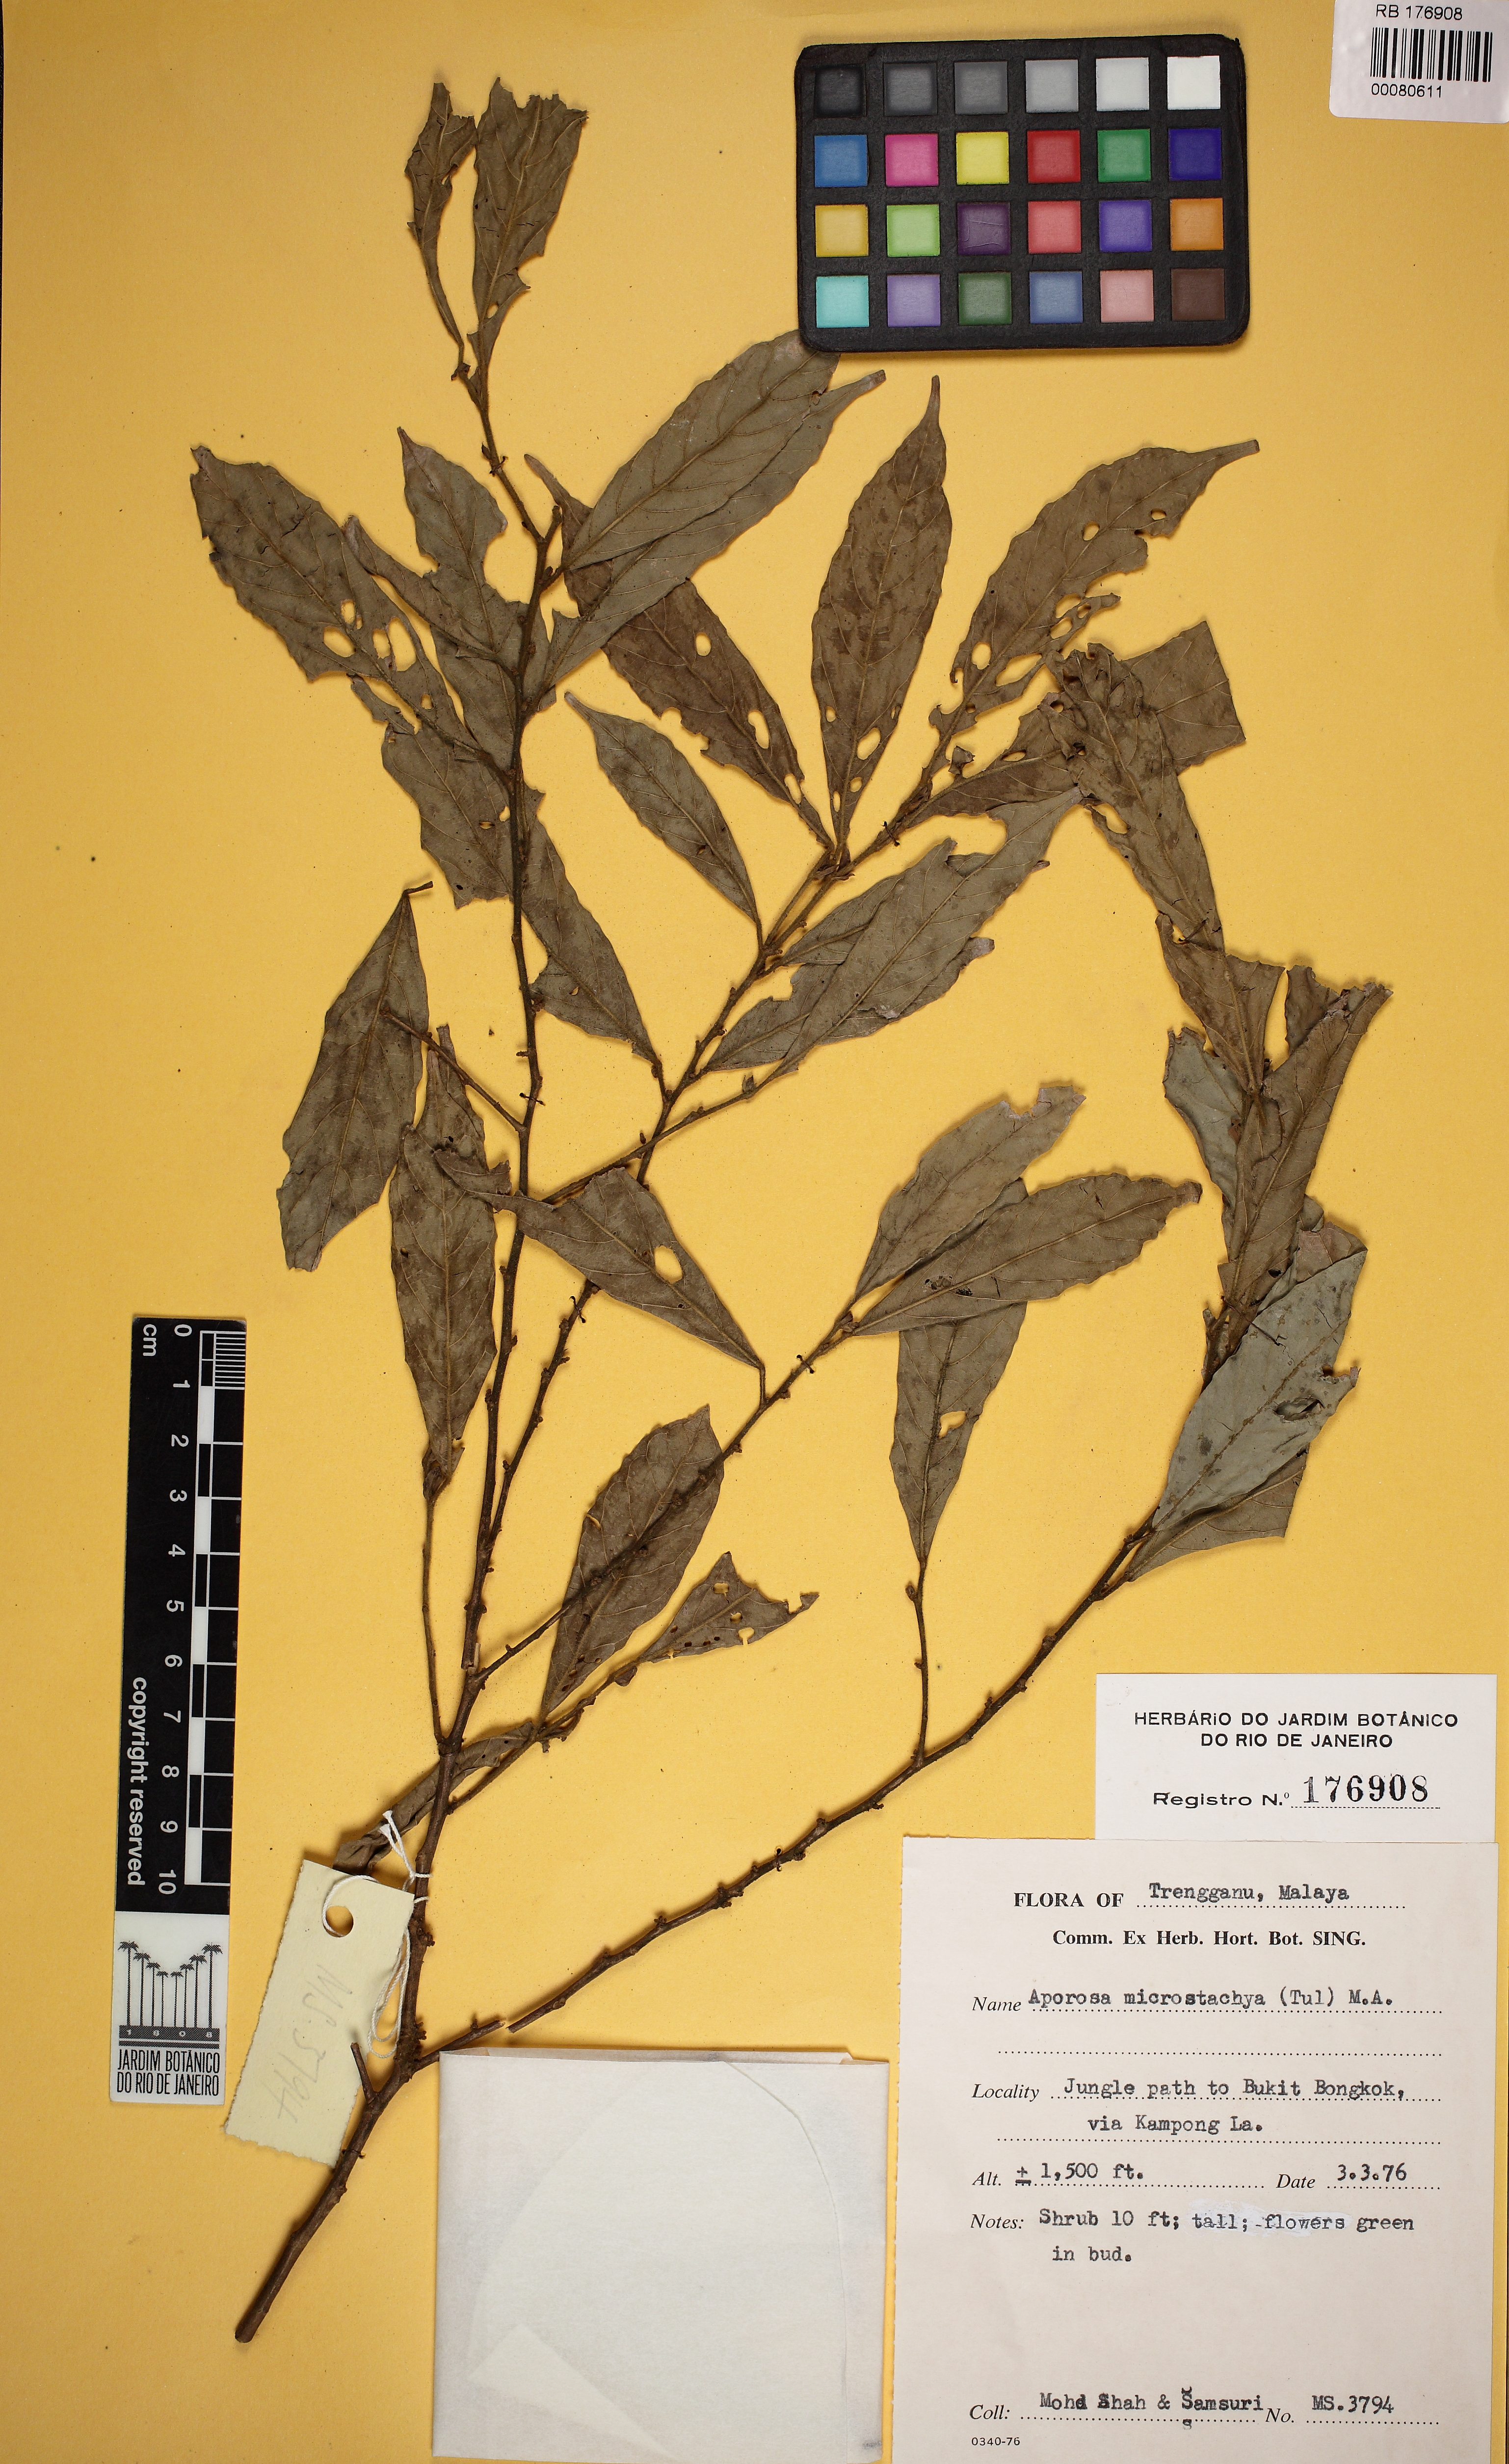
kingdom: Plantae
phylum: Tracheophyta
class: Magnoliopsida
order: Malpighiales
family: Phyllanthaceae
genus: Aporosa
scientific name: Aporosa microstachya
